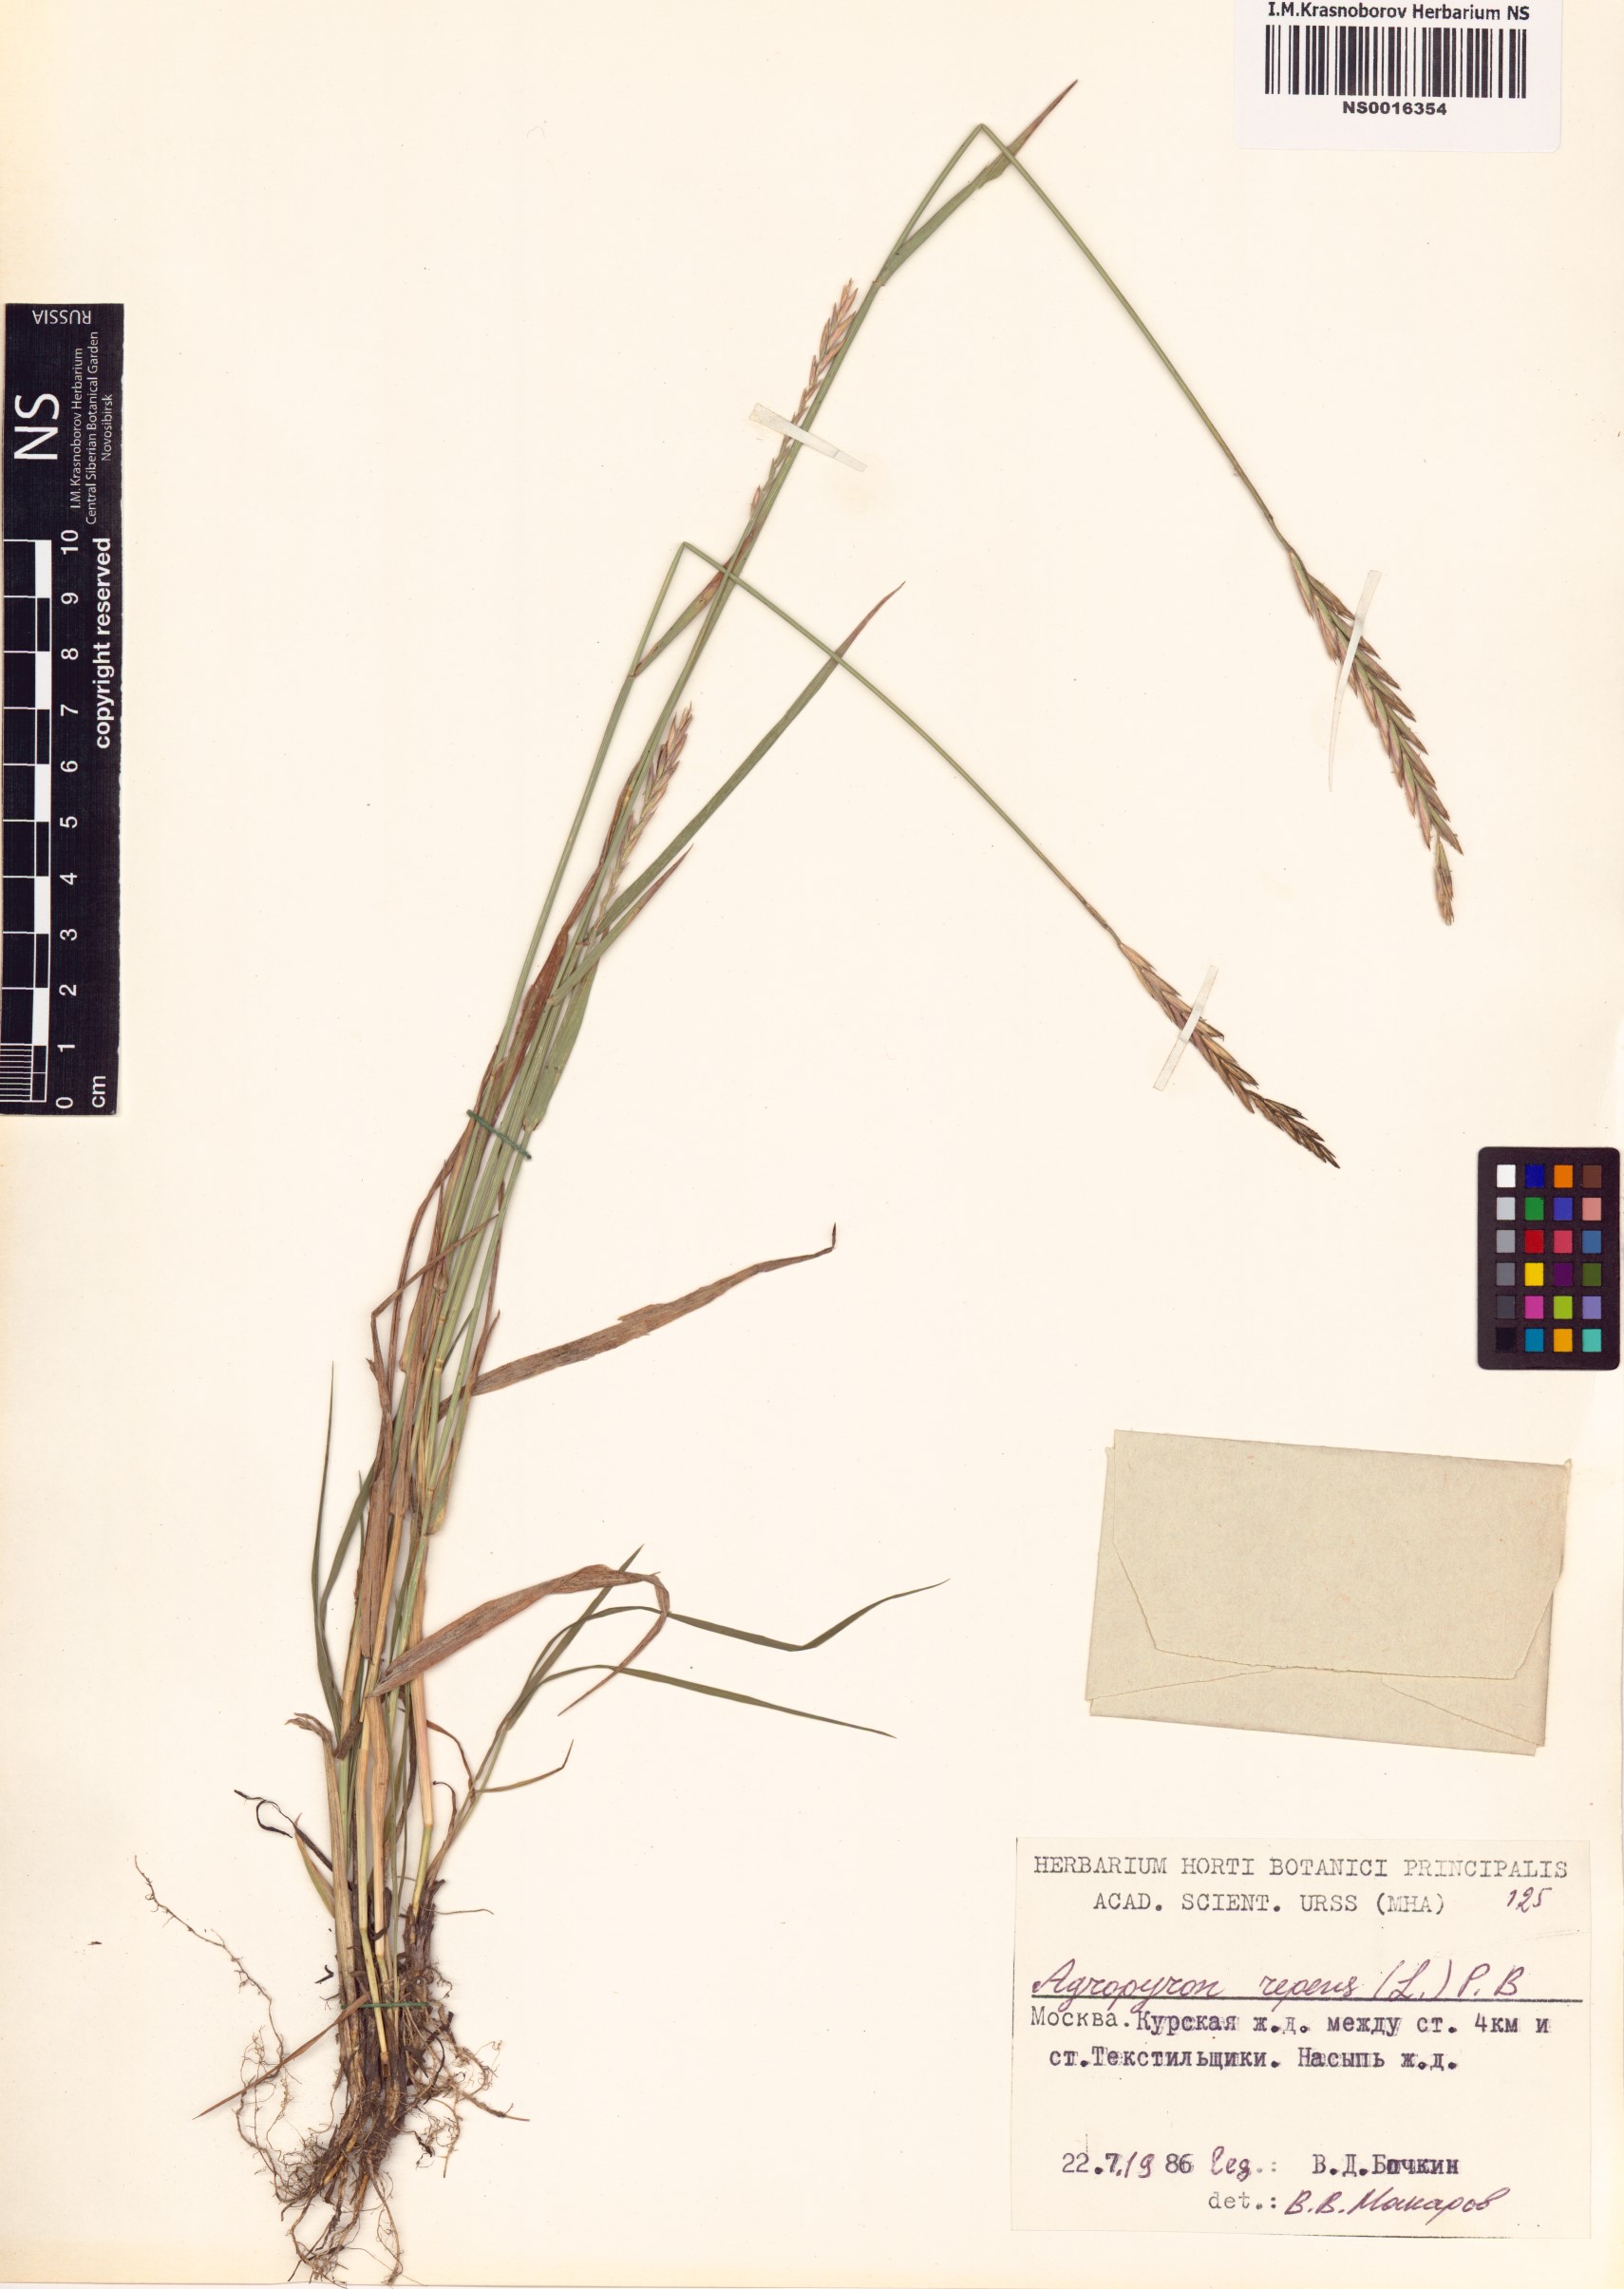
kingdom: Plantae
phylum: Tracheophyta
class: Liliopsida
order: Poales
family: Poaceae
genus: Elymus
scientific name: Elymus repens
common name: Quackgrass
